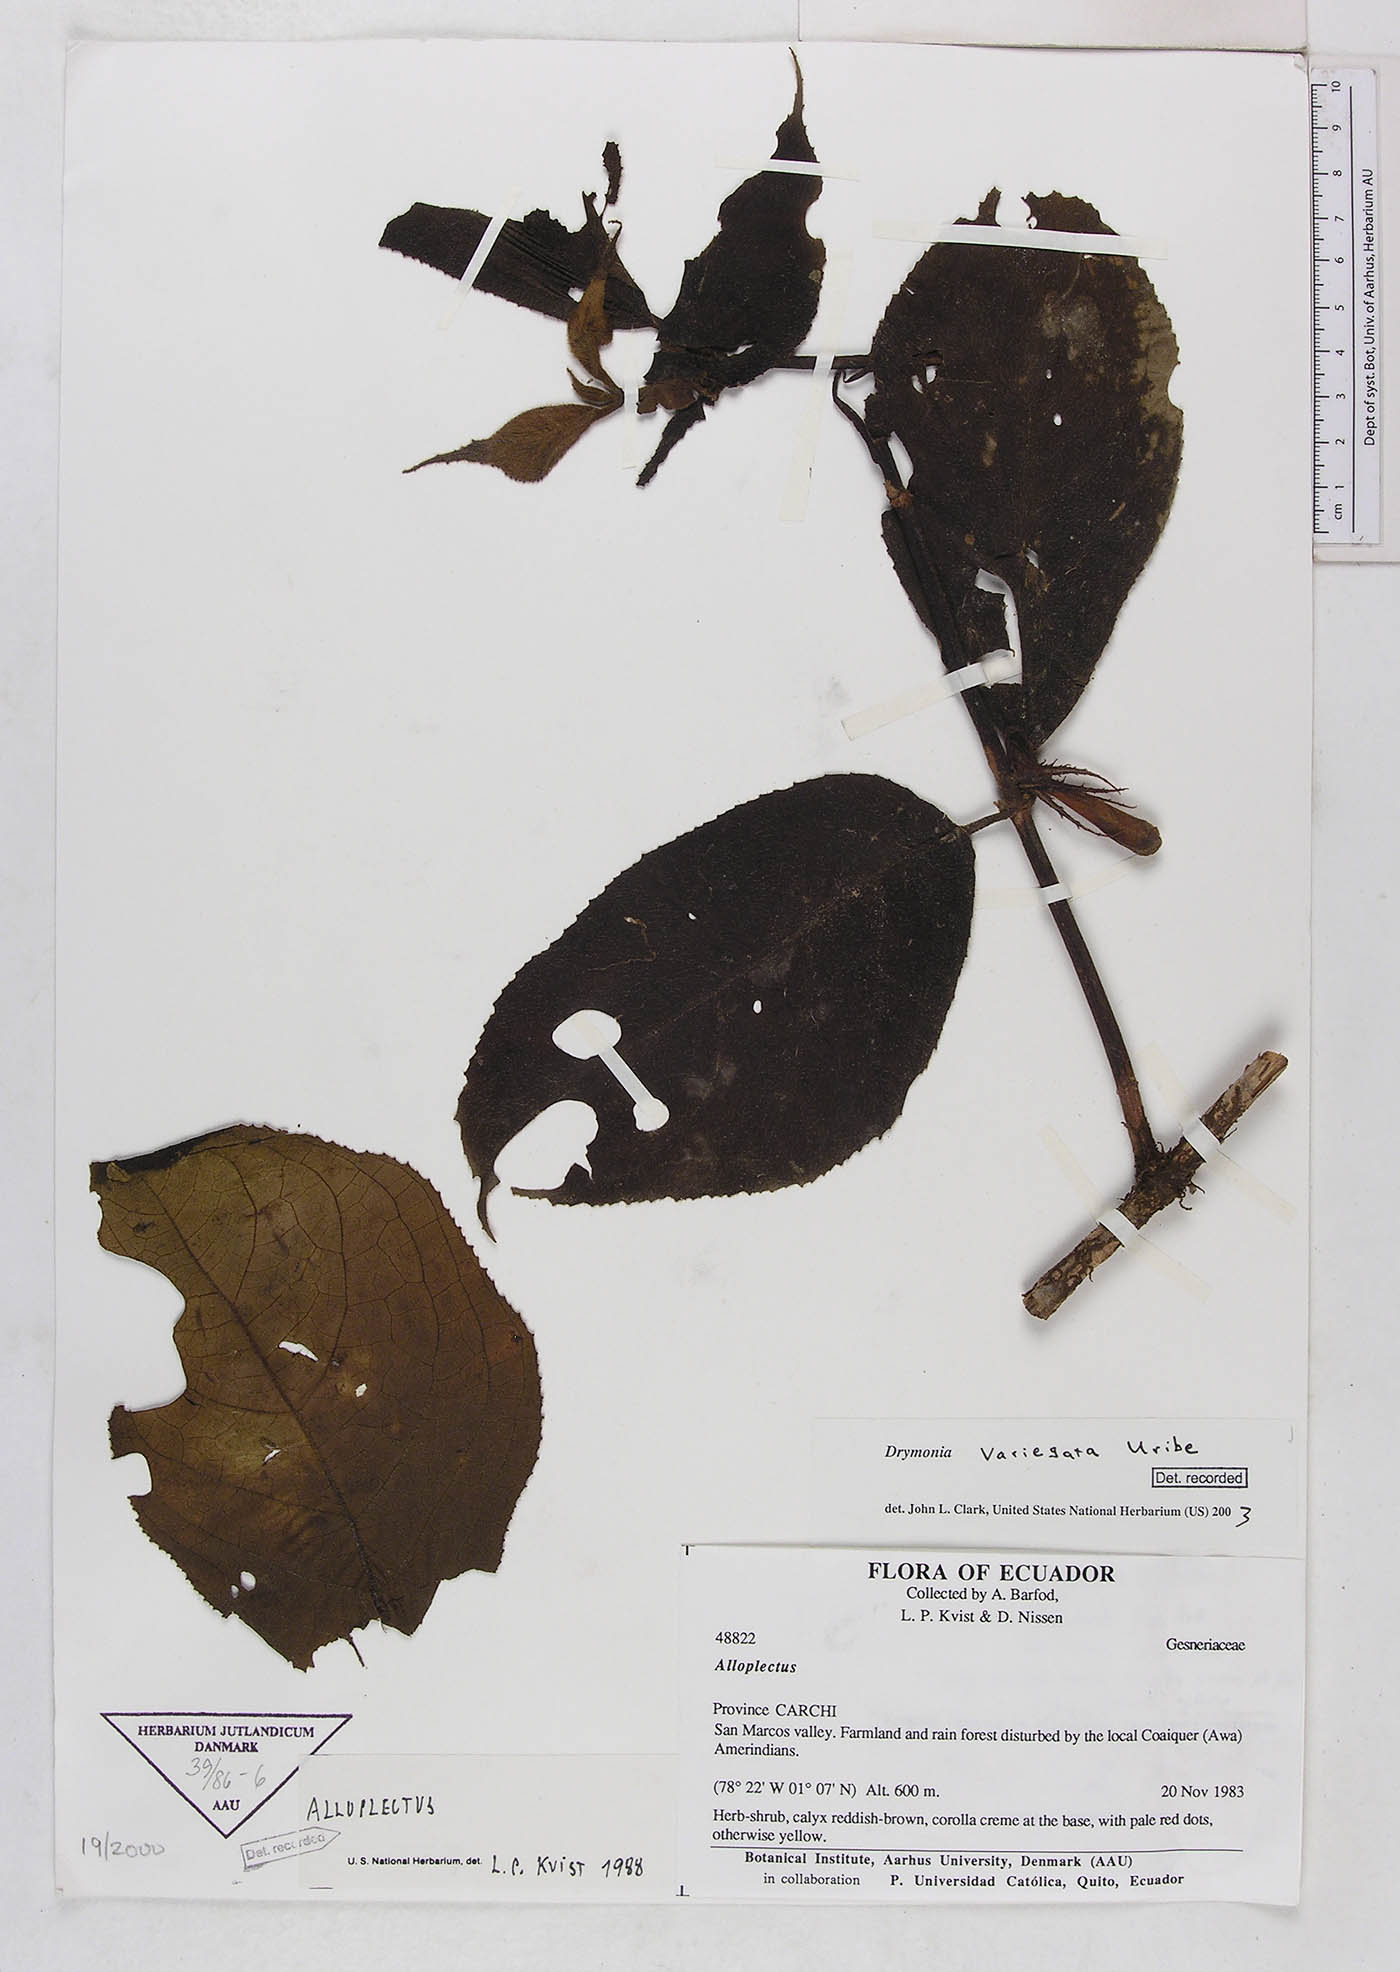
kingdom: Plantae
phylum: Tracheophyta
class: Magnoliopsida
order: Lamiales
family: Gesneriaceae
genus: Drymonia
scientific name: Drymonia variegata
